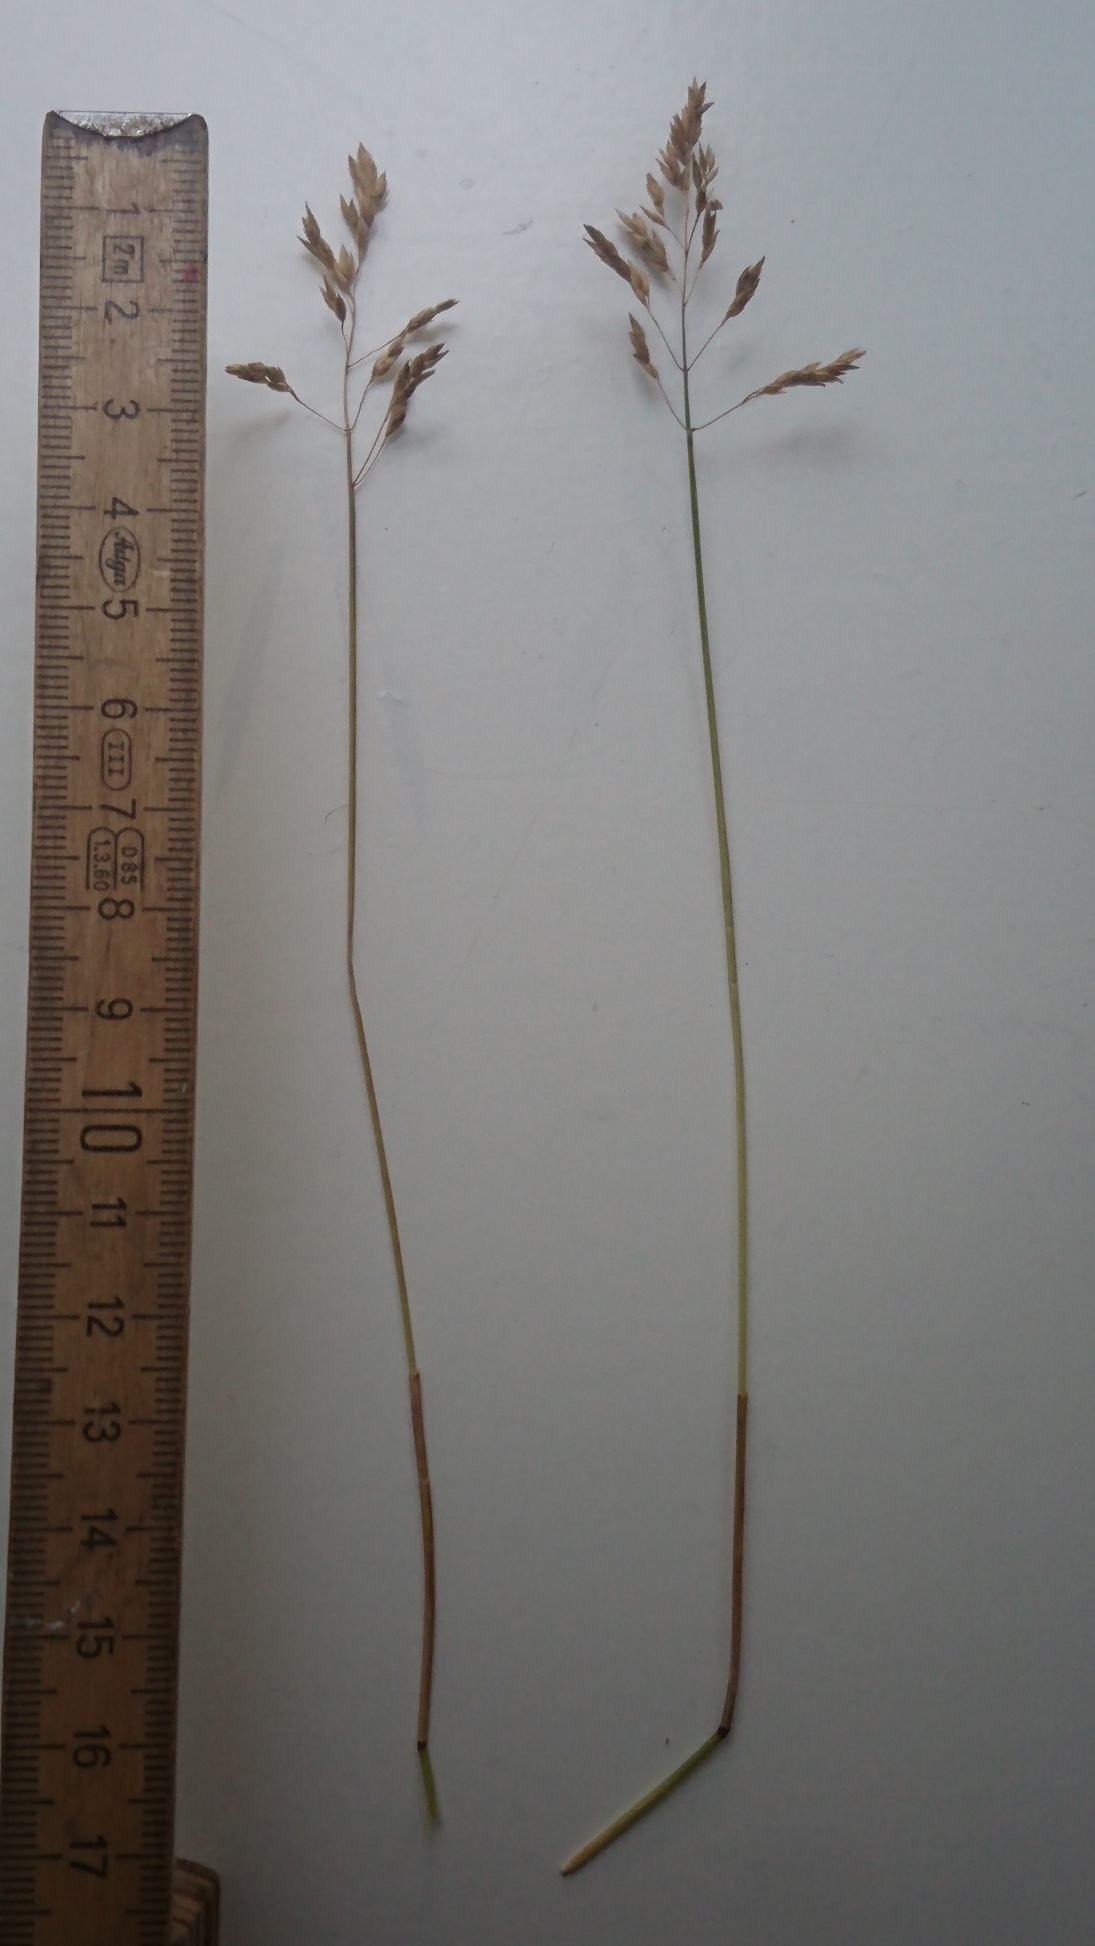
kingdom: Plantae
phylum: Tracheophyta
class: Liliopsida
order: Poales
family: Poaceae
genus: Poa
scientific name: Poa humilis
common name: Sølv-rapgræs
